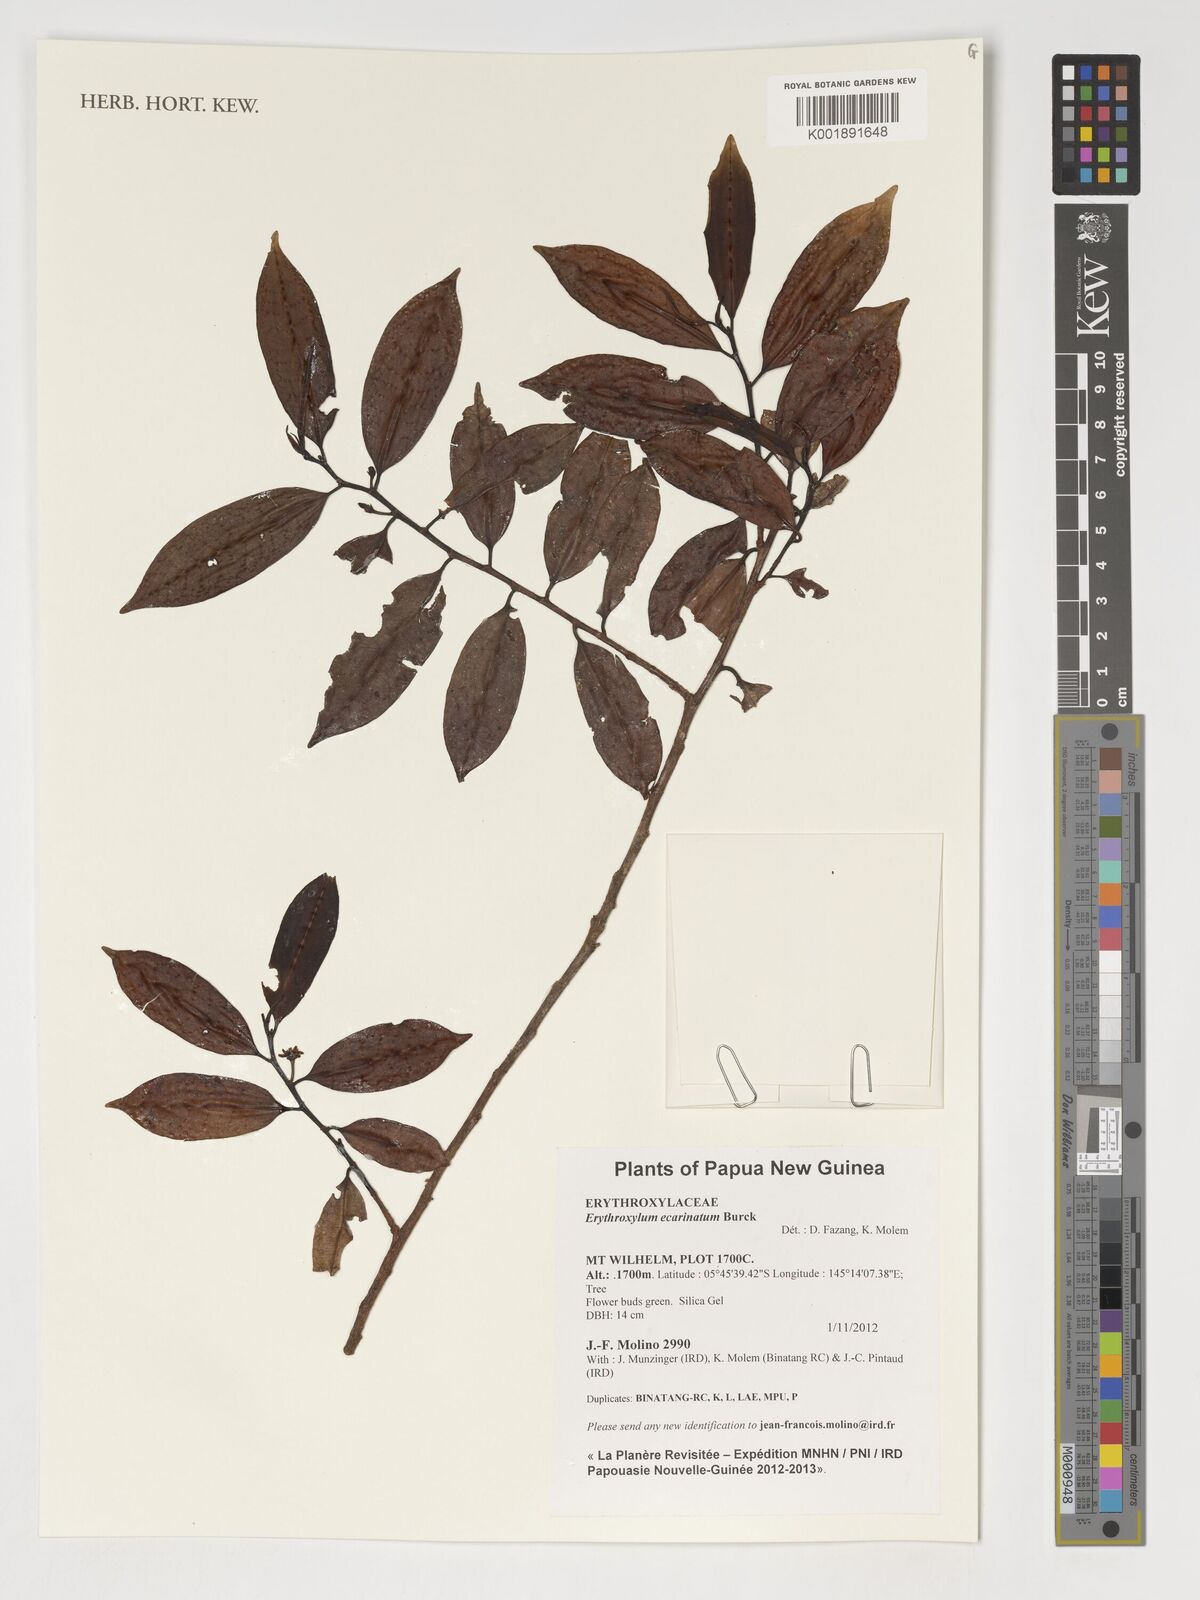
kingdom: Plantae
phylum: Tracheophyta
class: Magnoliopsida
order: Malpighiales
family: Erythroxylaceae
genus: Erythroxylum
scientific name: Erythroxylum
